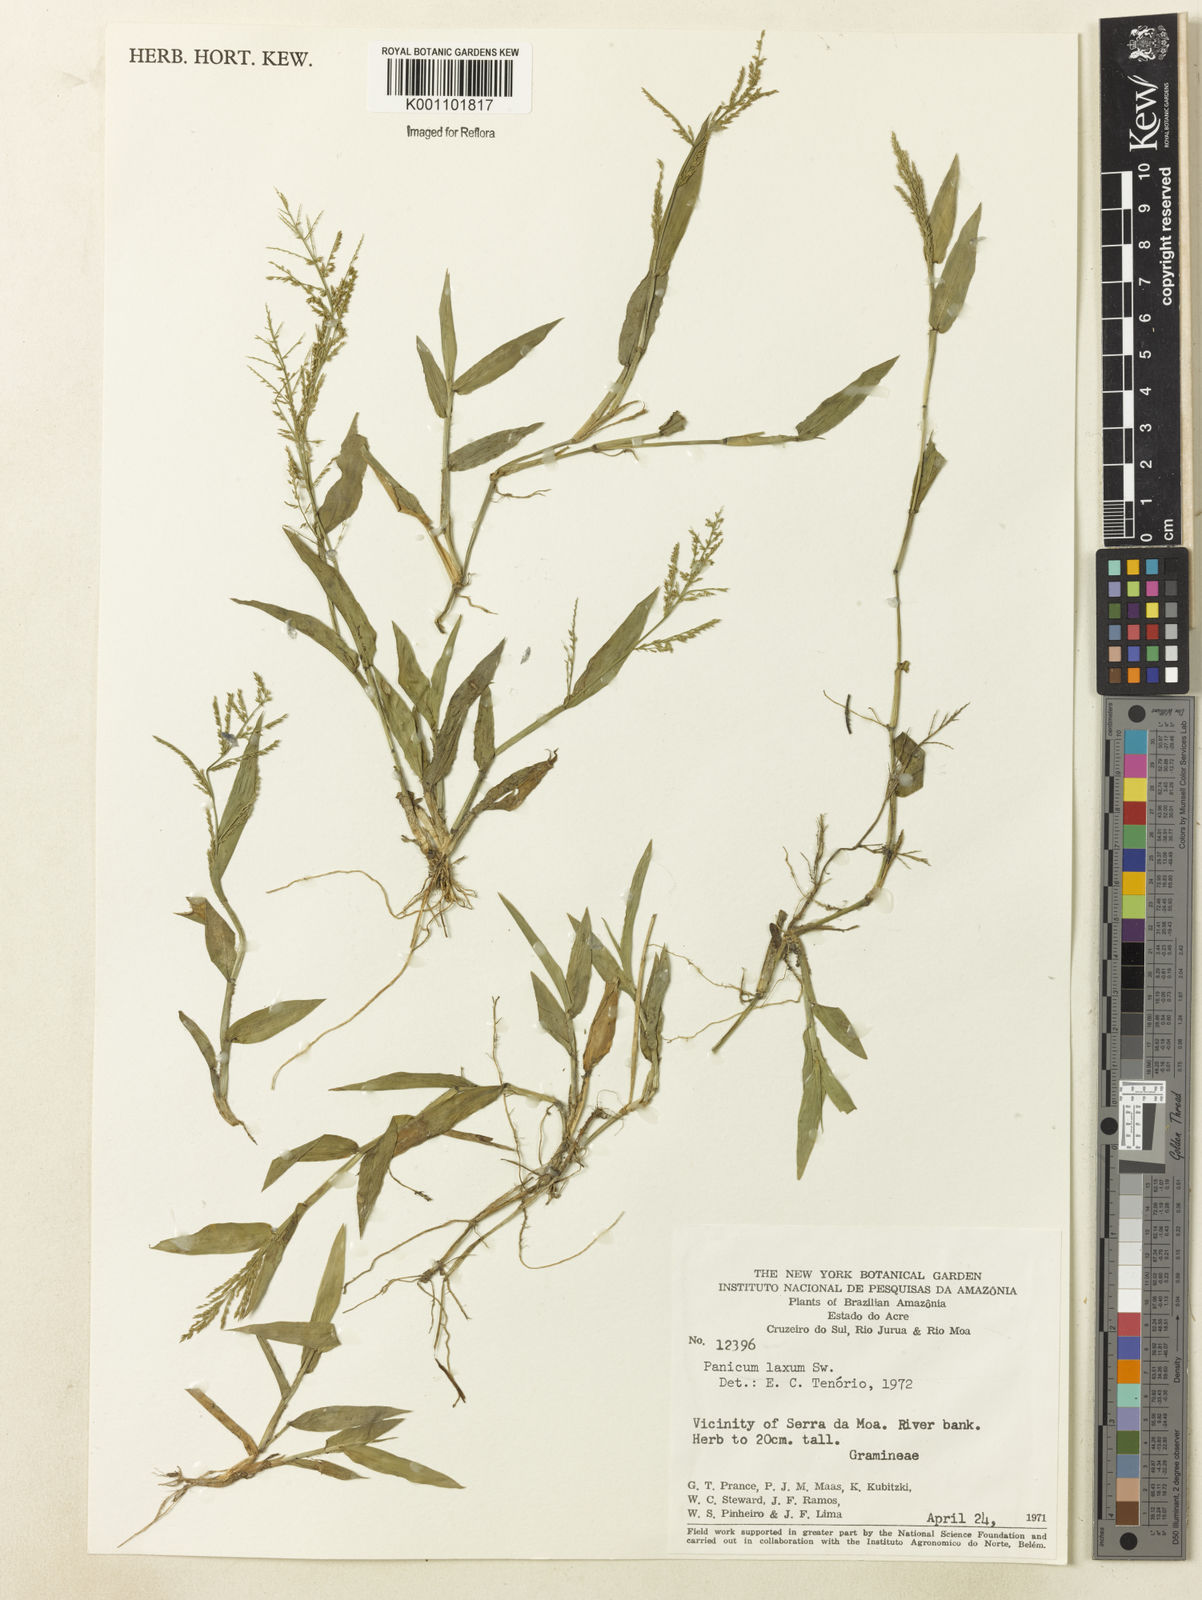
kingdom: Plantae
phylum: Tracheophyta
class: Liliopsida
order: Poales
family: Poaceae
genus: Rugoloa
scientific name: Rugoloa polygonata
